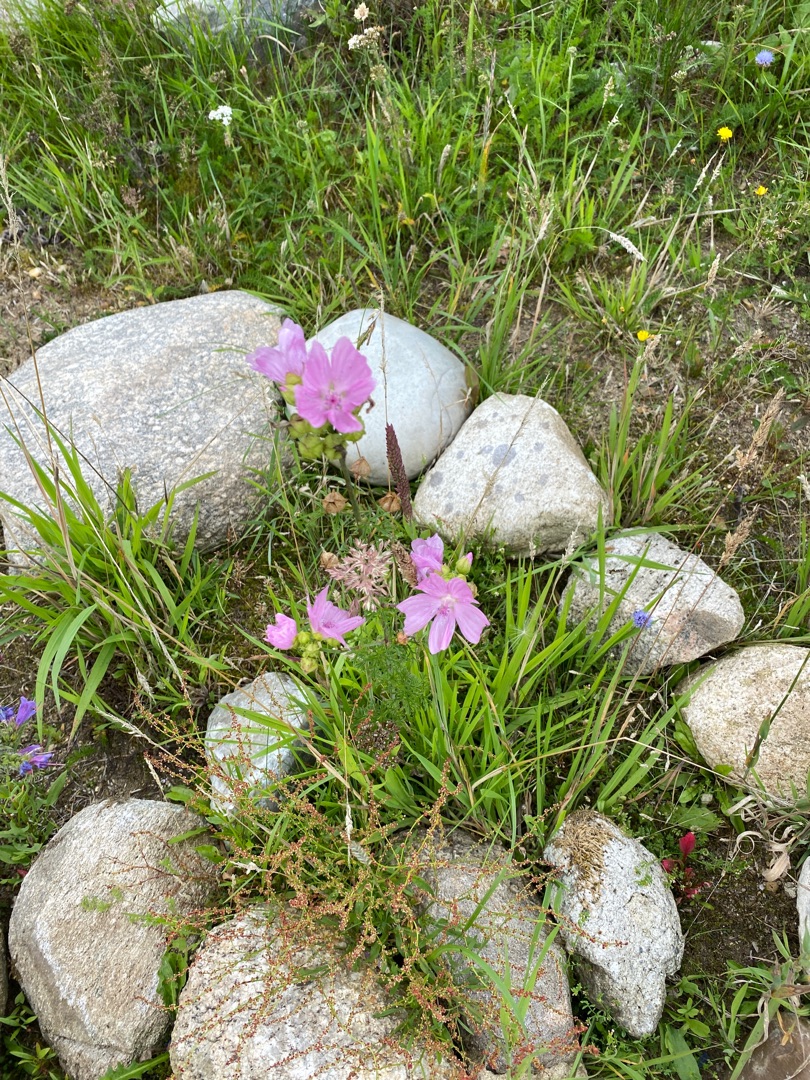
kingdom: Plantae
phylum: Tracheophyta
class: Magnoliopsida
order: Malvales
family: Malvaceae
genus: Malva
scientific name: Malva moschata
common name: Moskus-katost
